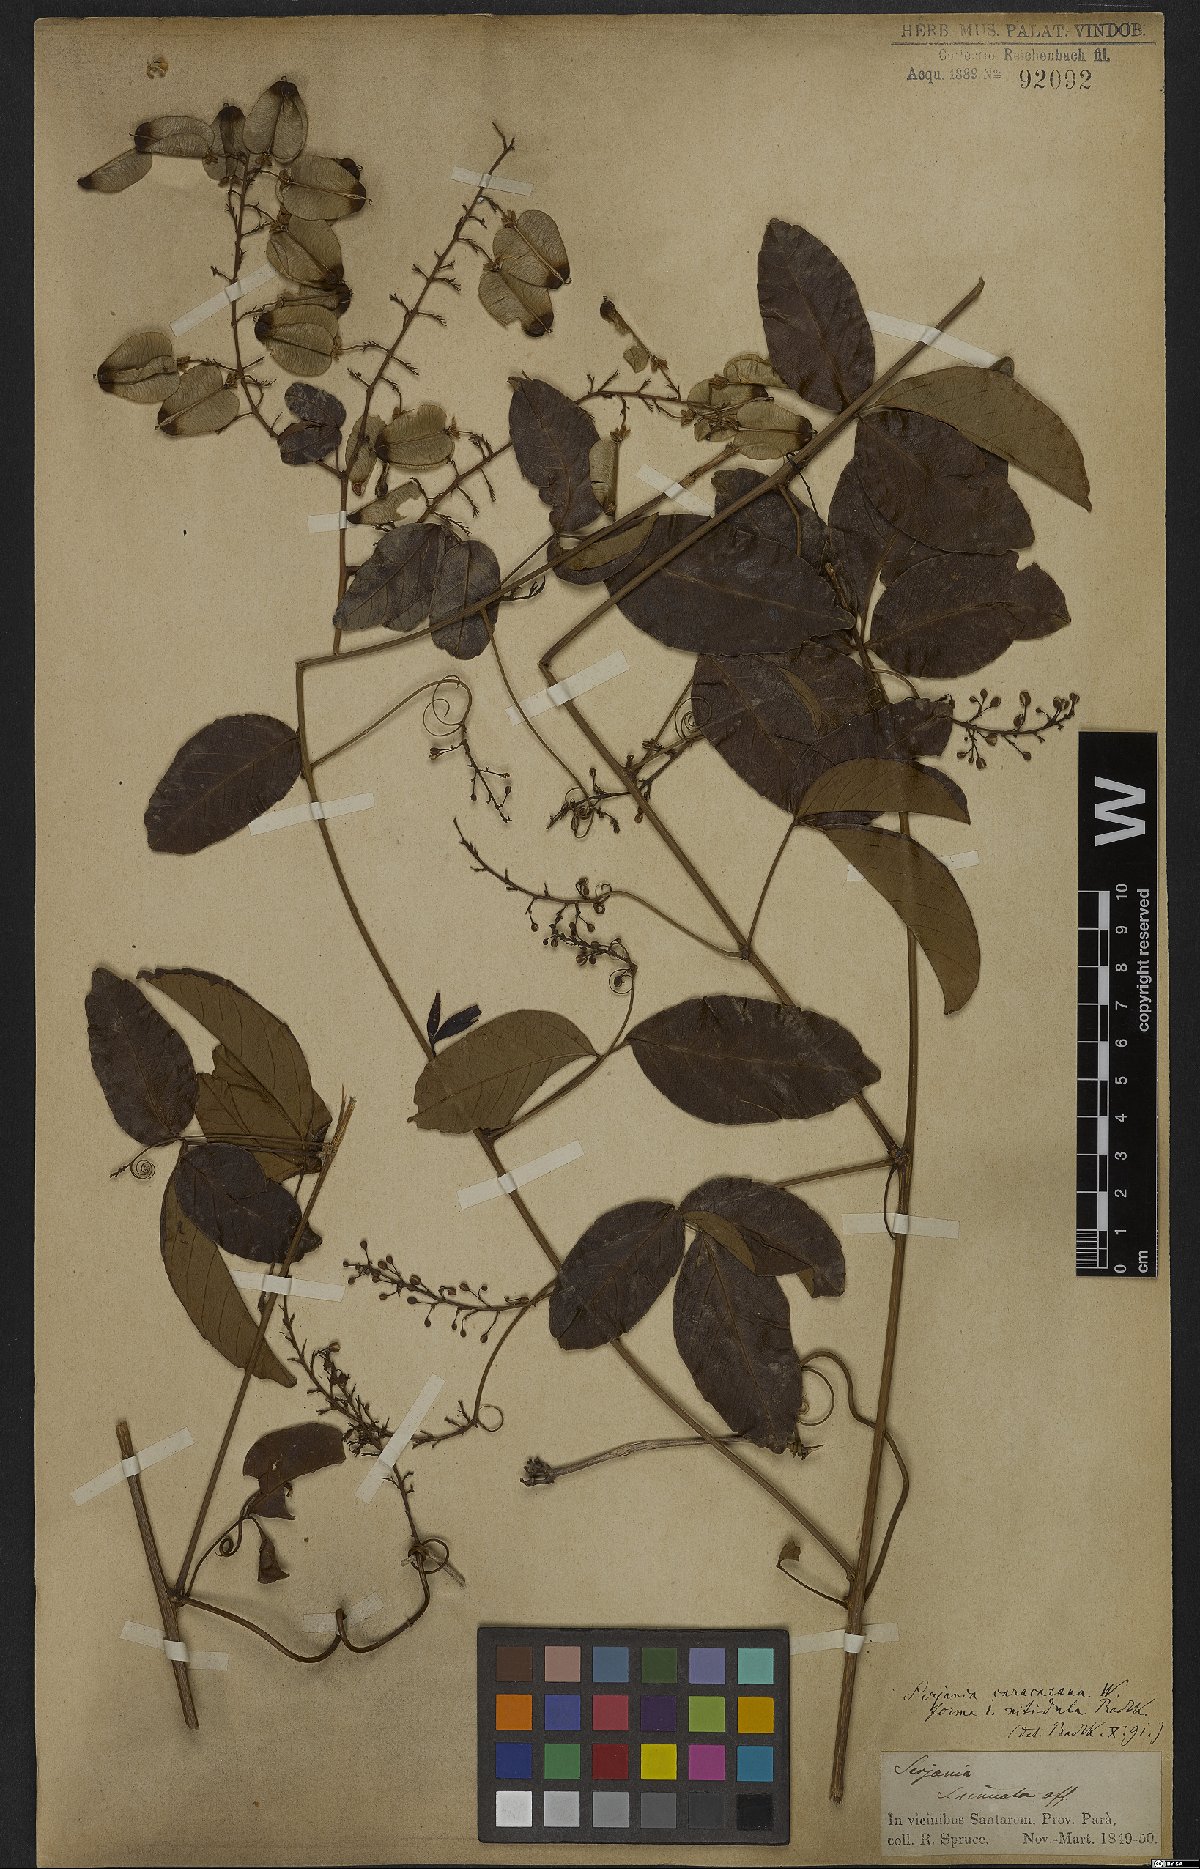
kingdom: Plantae
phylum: Tracheophyta
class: Magnoliopsida
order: Sapindales
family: Sapindaceae
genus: Serjania
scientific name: Serjania caracasana
